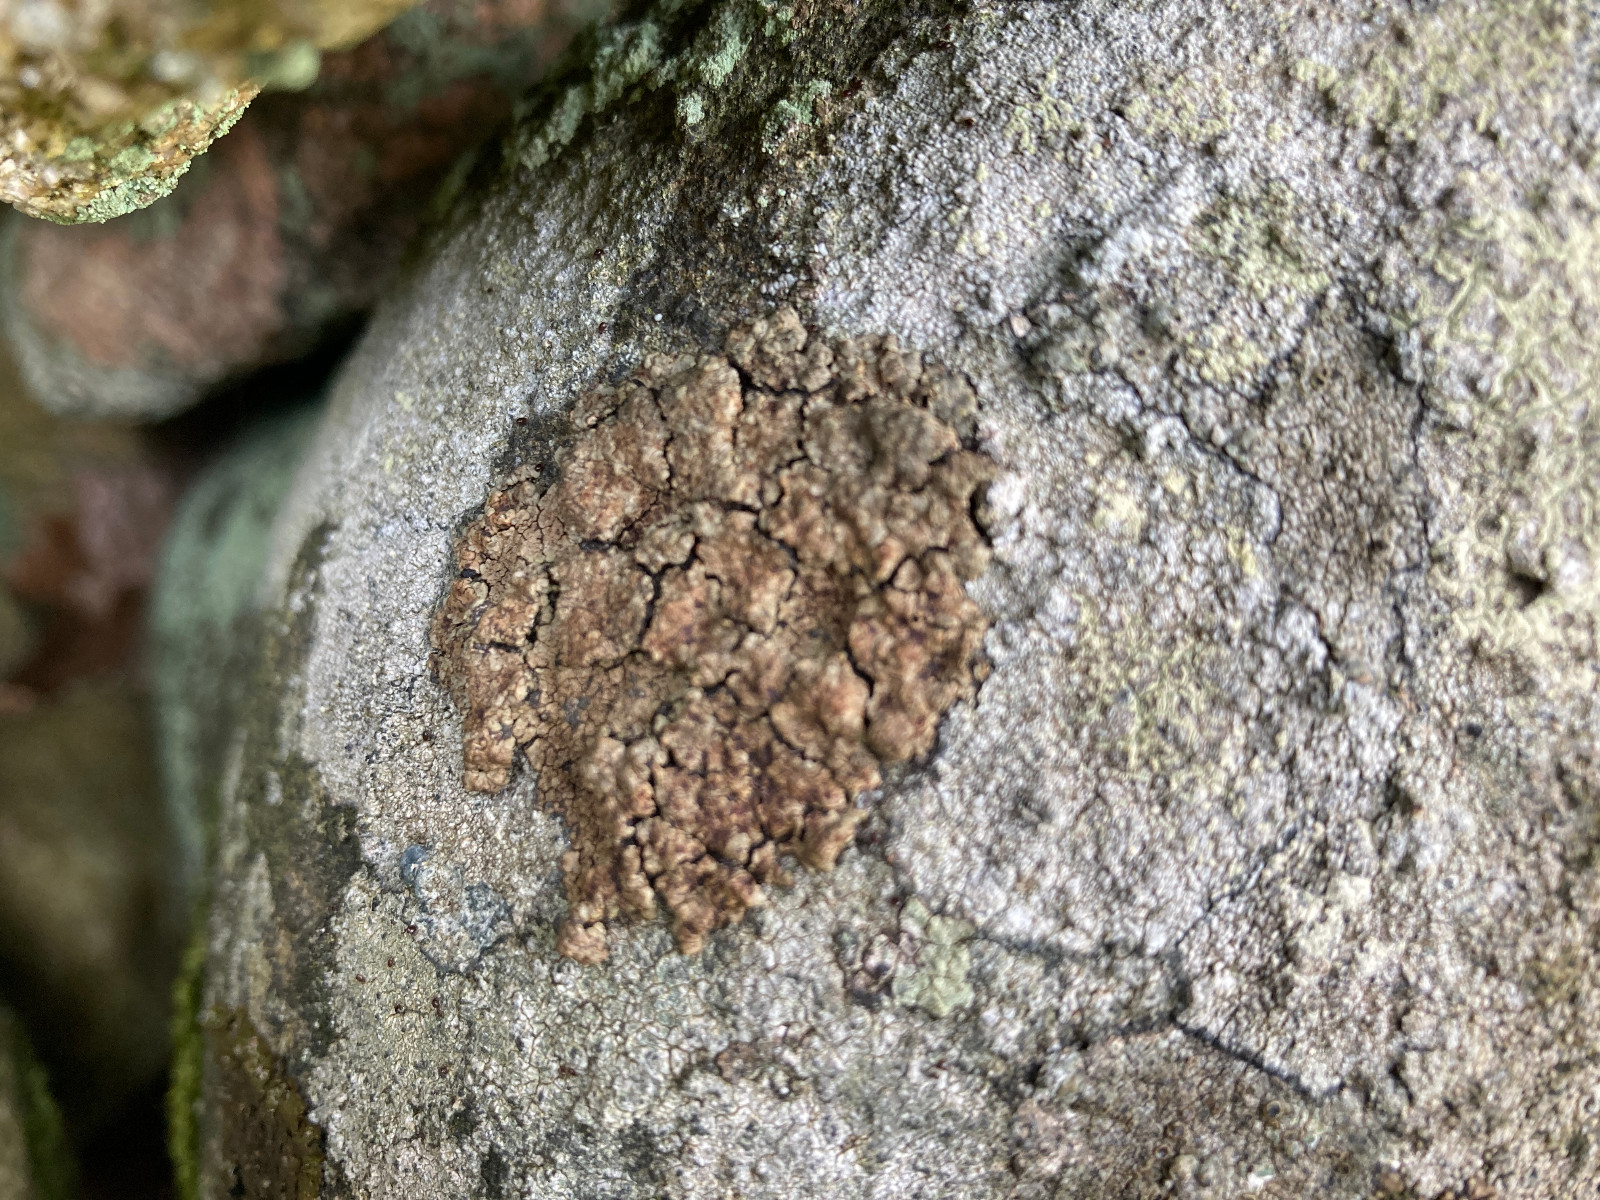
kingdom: Fungi
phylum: Ascomycota
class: Lecanoromycetes
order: Acarosporales
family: Acarosporaceae
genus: Acarospora
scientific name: Acarospora fuscata
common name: brun småsporelav
